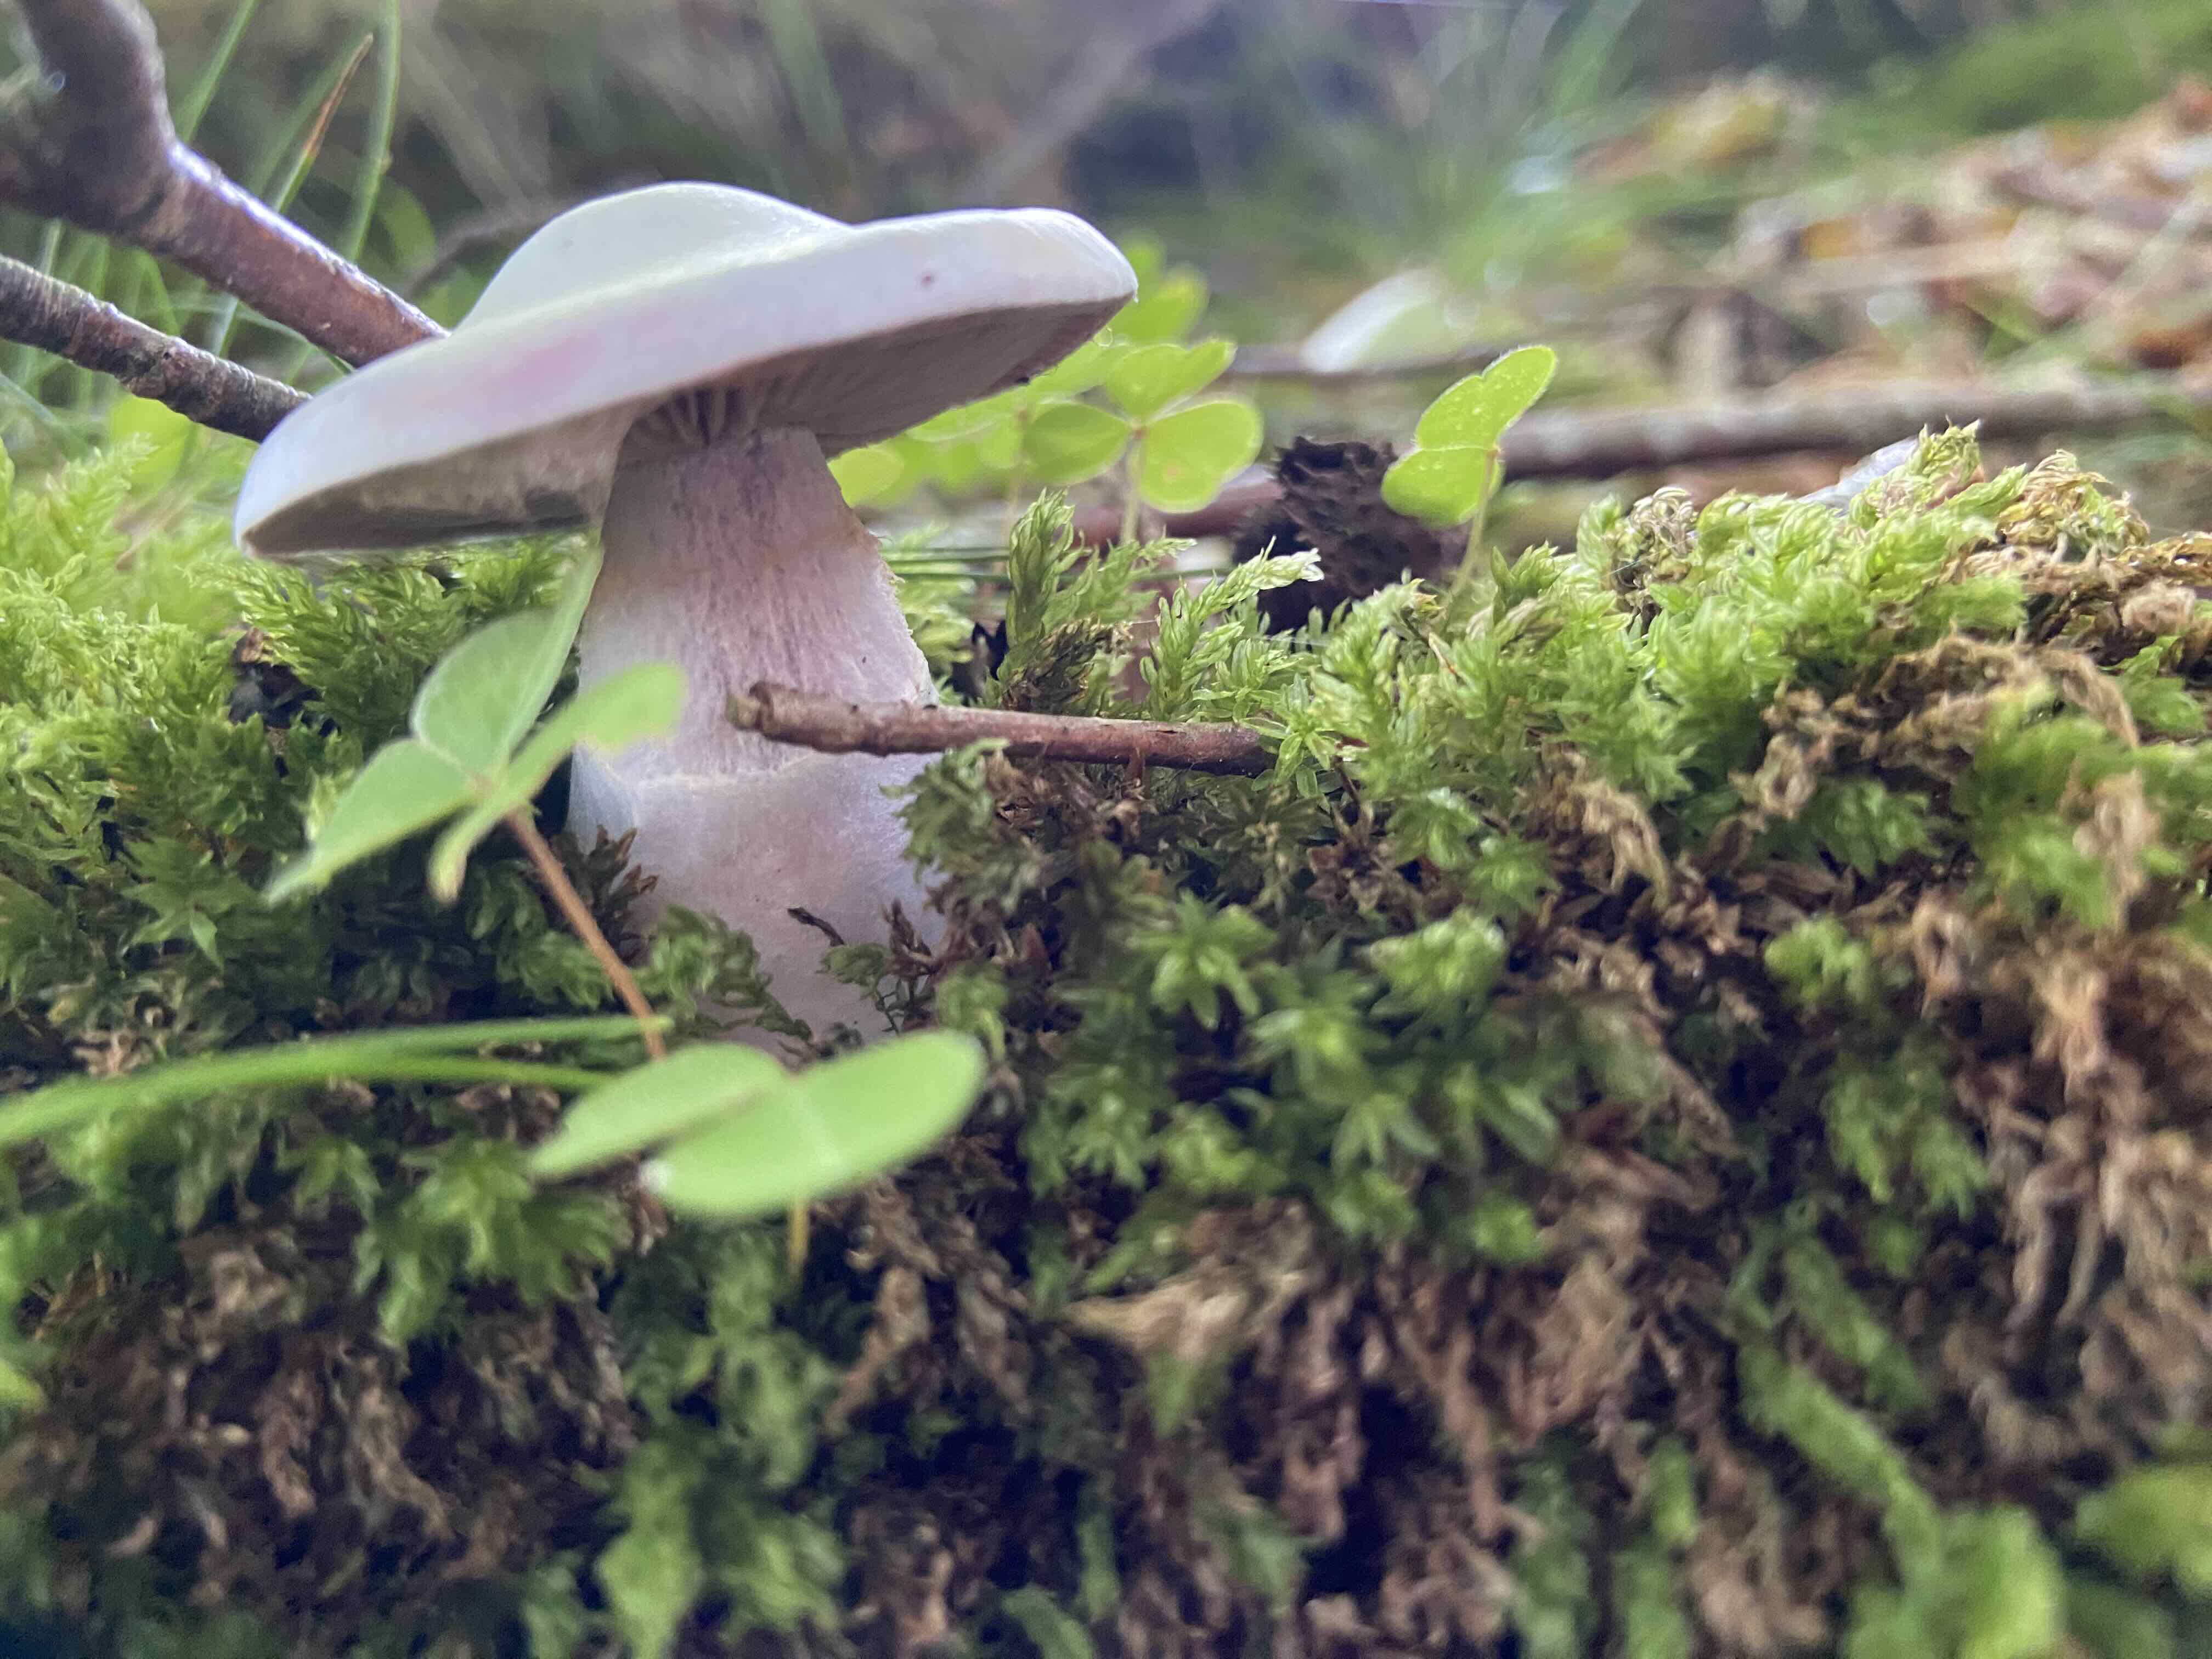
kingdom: Fungi
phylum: Basidiomycota
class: Agaricomycetes
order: Agaricales
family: Cortinariaceae
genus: Cortinarius
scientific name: Cortinarius
